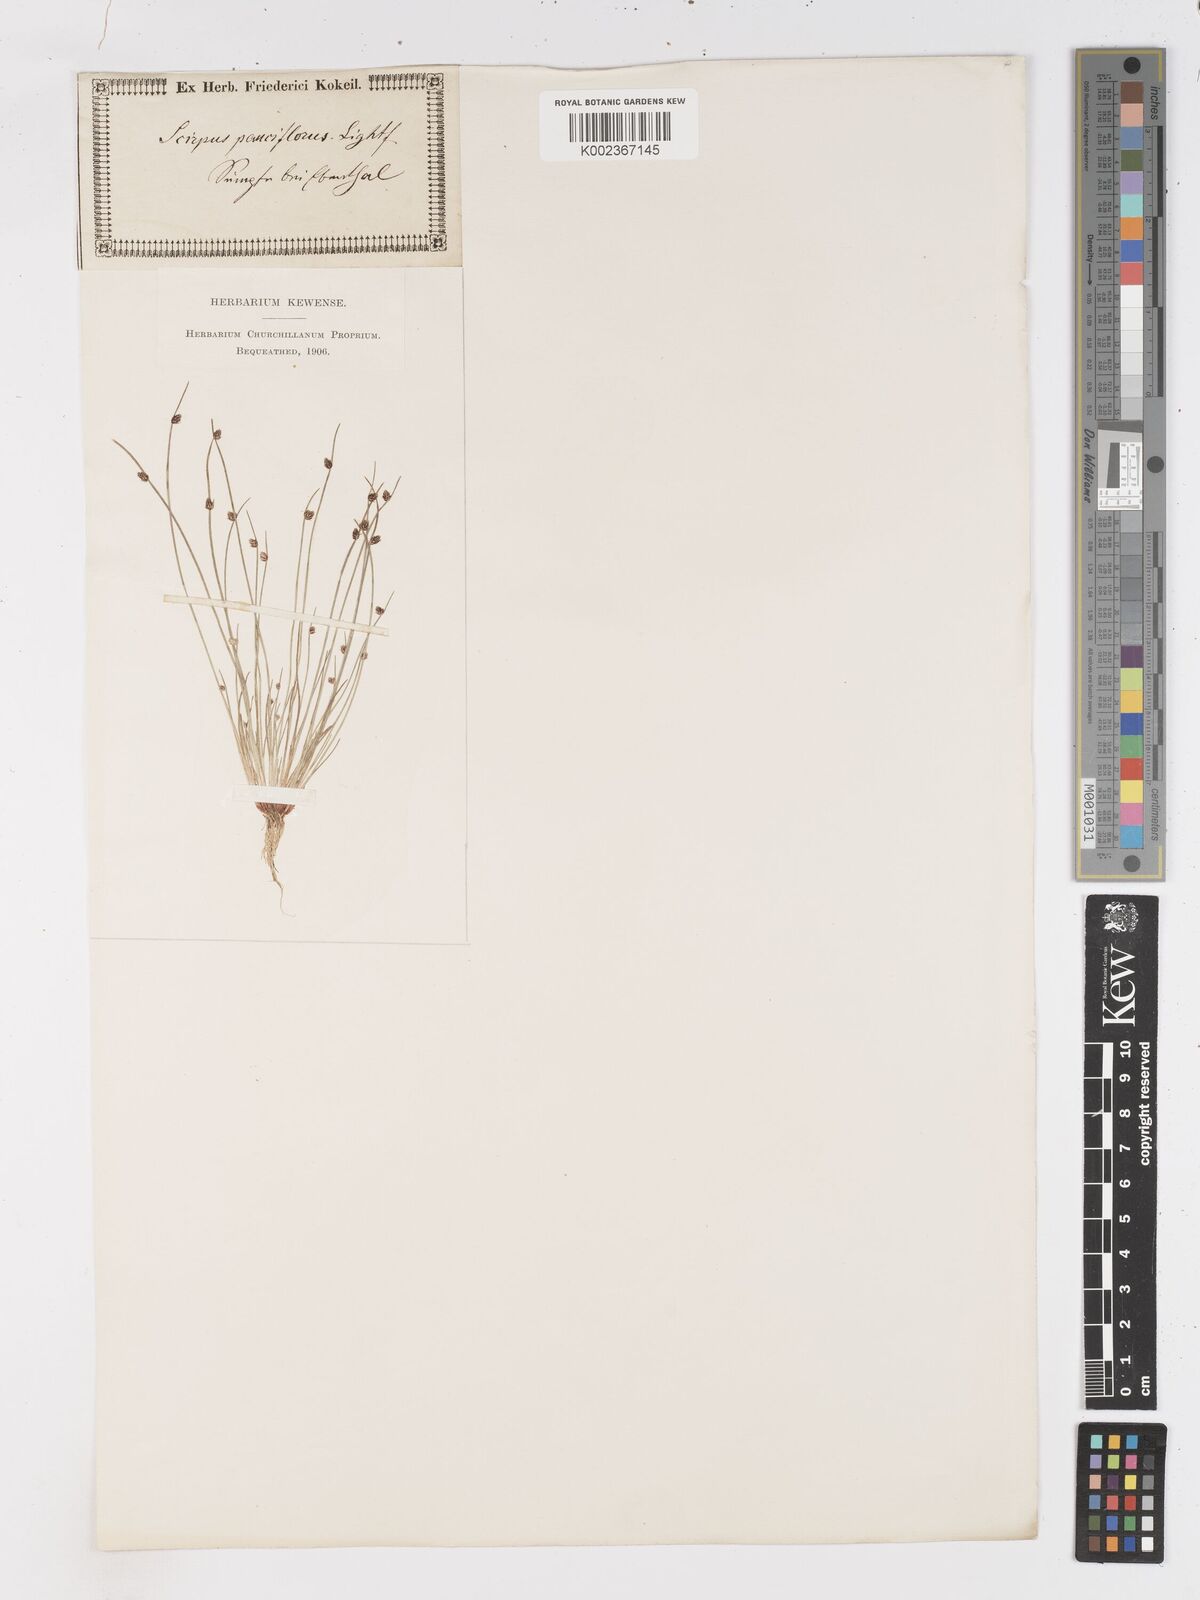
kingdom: Plantae
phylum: Tracheophyta
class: Liliopsida
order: Poales
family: Cyperaceae
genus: Isolepis
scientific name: Isolepis setacea
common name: Bristle club-rush
